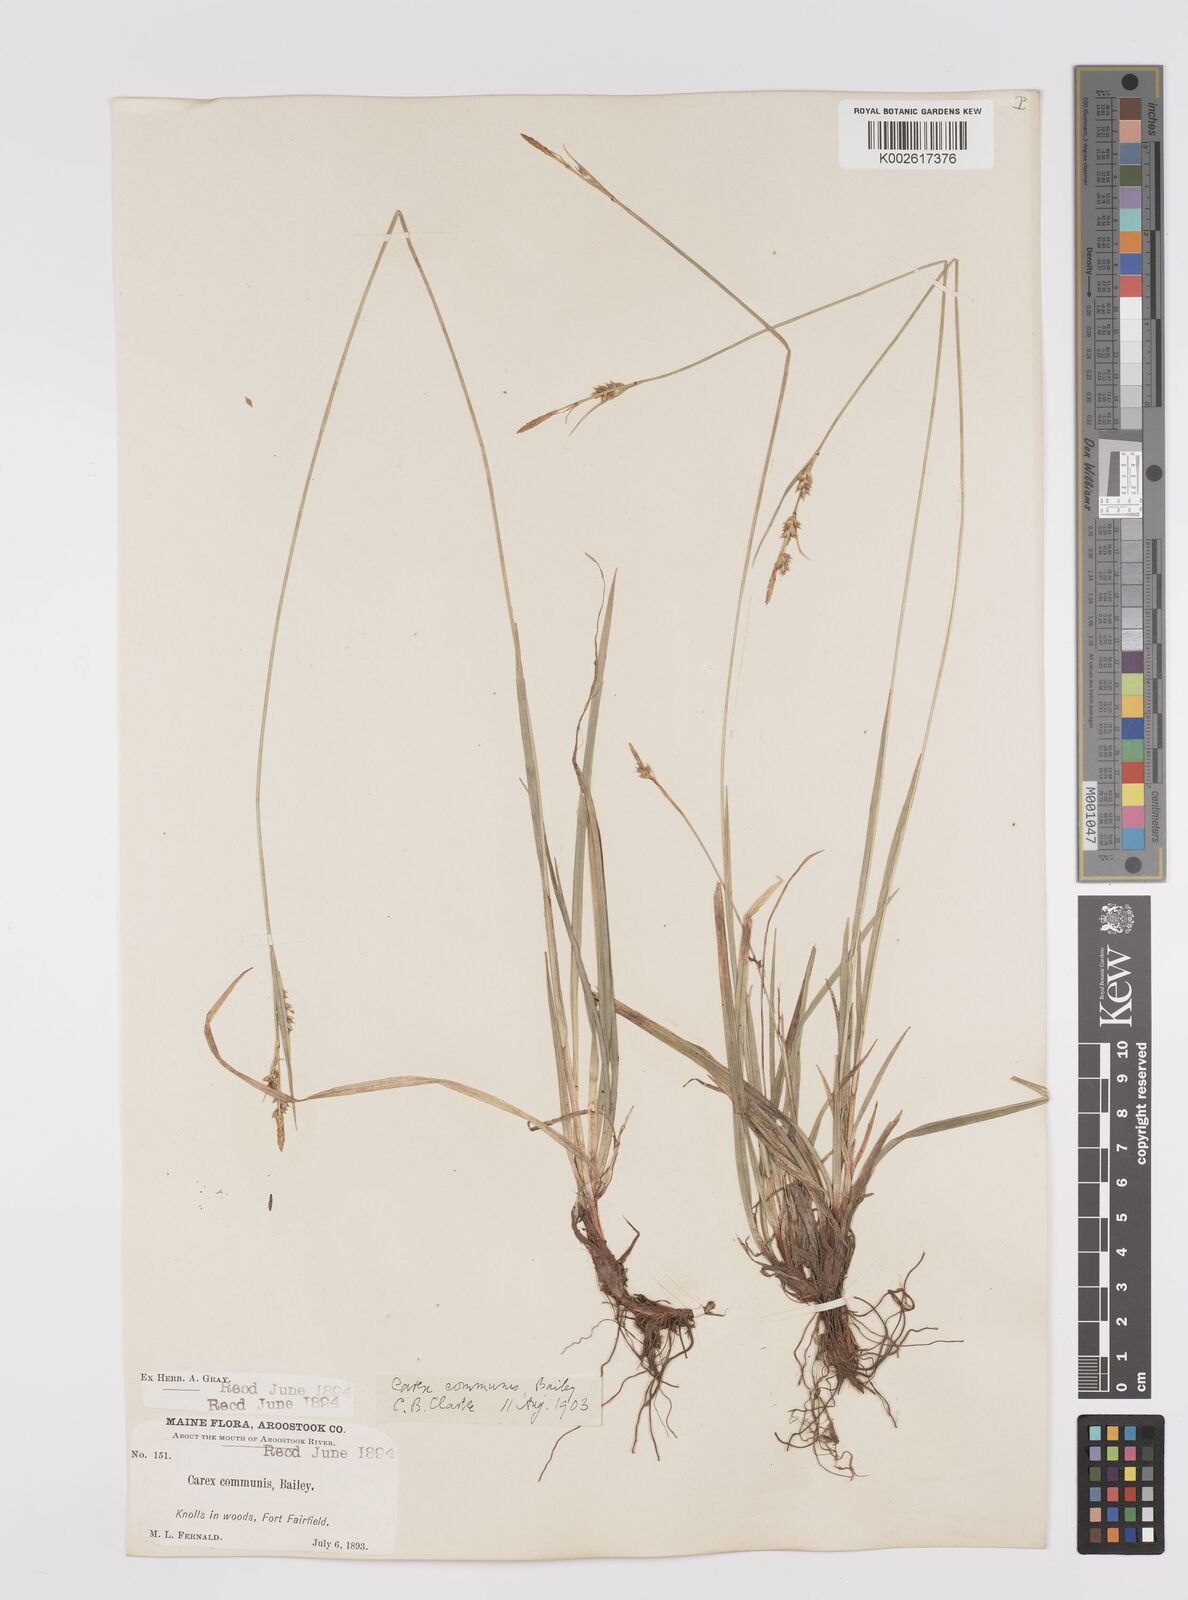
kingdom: Plantae
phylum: Tracheophyta
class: Liliopsida
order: Poales
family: Cyperaceae
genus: Carex
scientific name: Carex communis
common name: Colonial oak sedge
